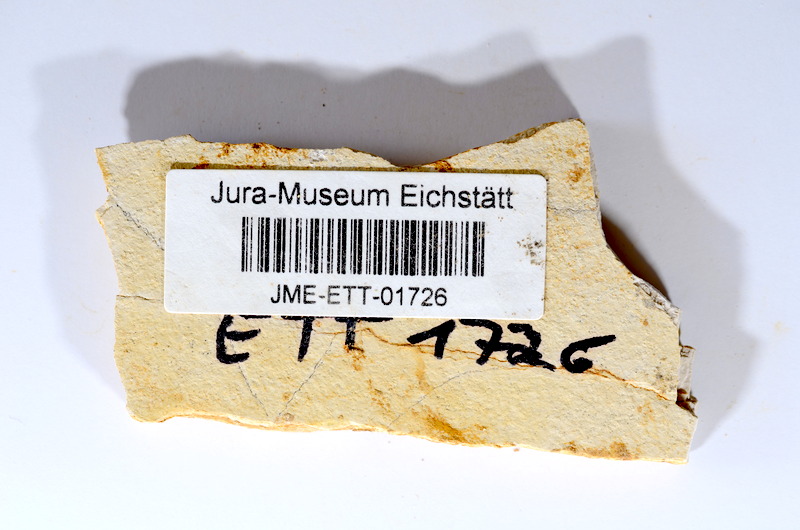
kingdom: Animalia
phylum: Chordata
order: Salmoniformes
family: Orthogonikleithridae
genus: Orthogonikleithrus
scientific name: Orthogonikleithrus hoelli
